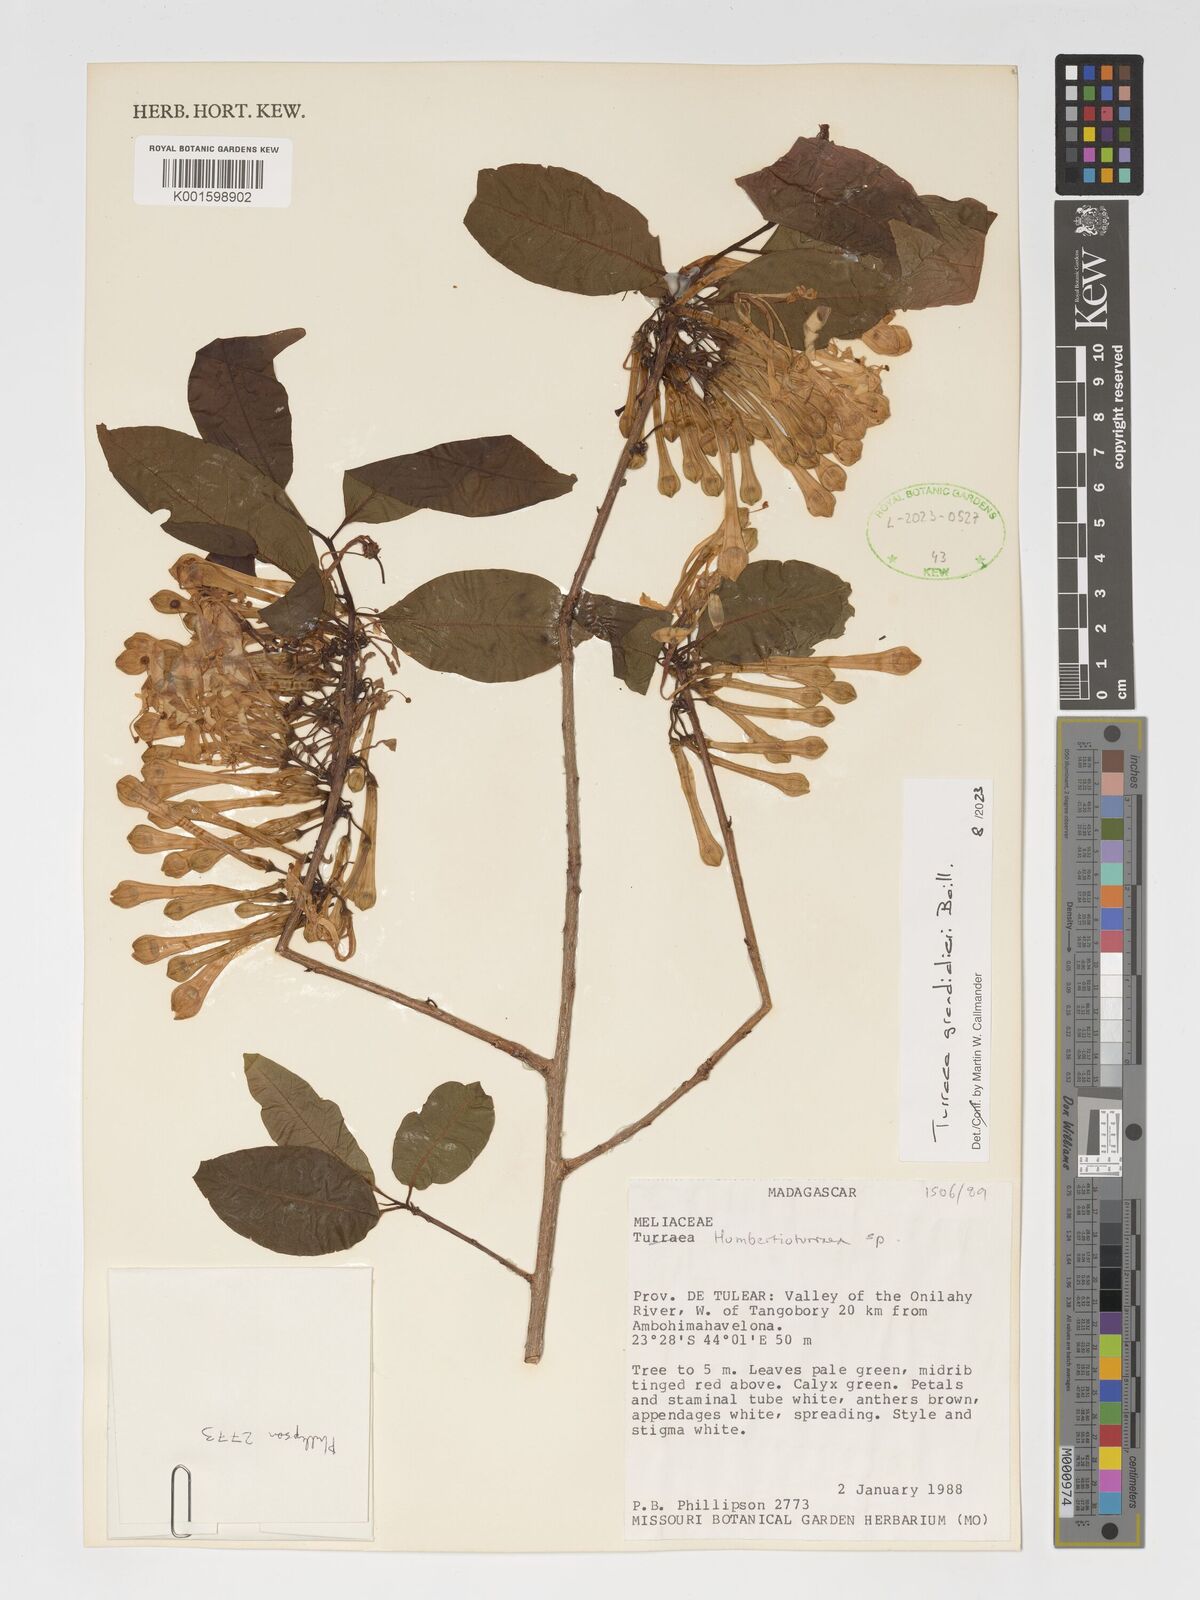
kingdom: Plantae
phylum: Tracheophyta
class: Magnoliopsida
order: Sapindales
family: Meliaceae
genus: Humbertioturraea
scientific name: Humbertioturraea grandidieri
